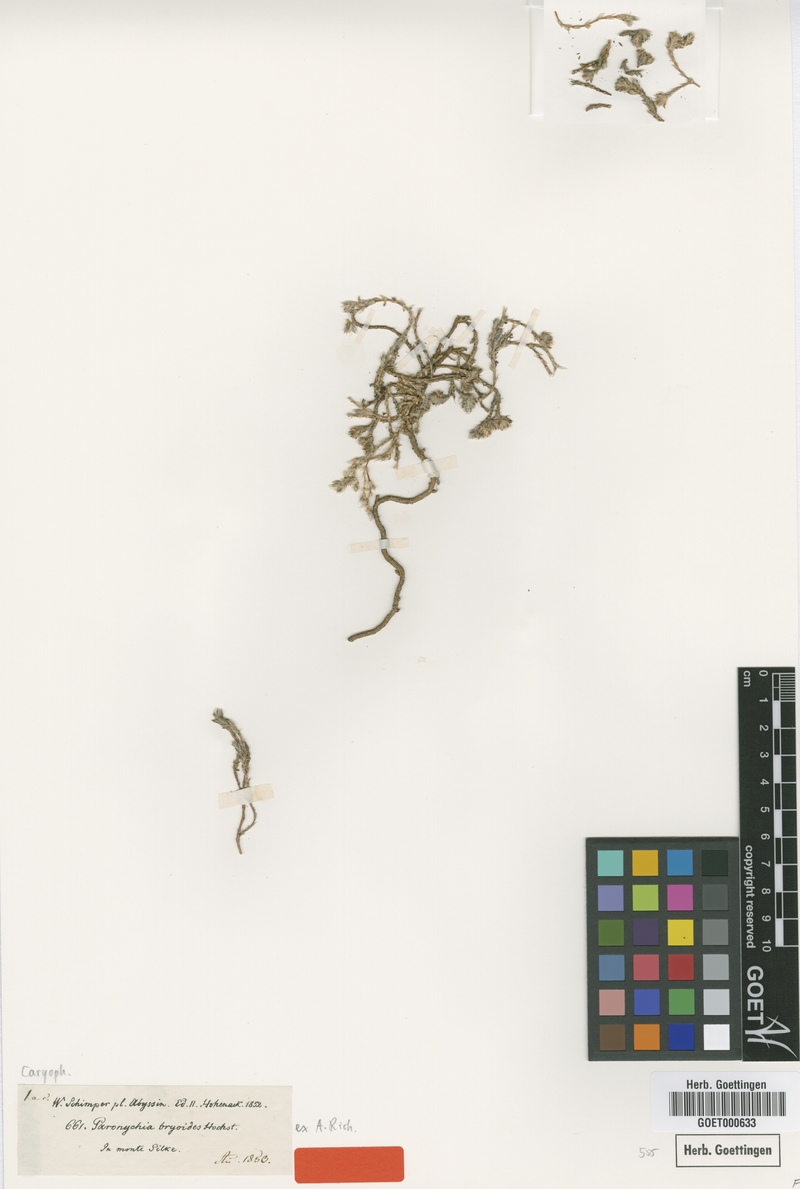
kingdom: Plantae
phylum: Tracheophyta
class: Magnoliopsida
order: Caryophyllales
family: Caryophyllaceae
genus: Paronychia
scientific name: Paronychia bryoides
